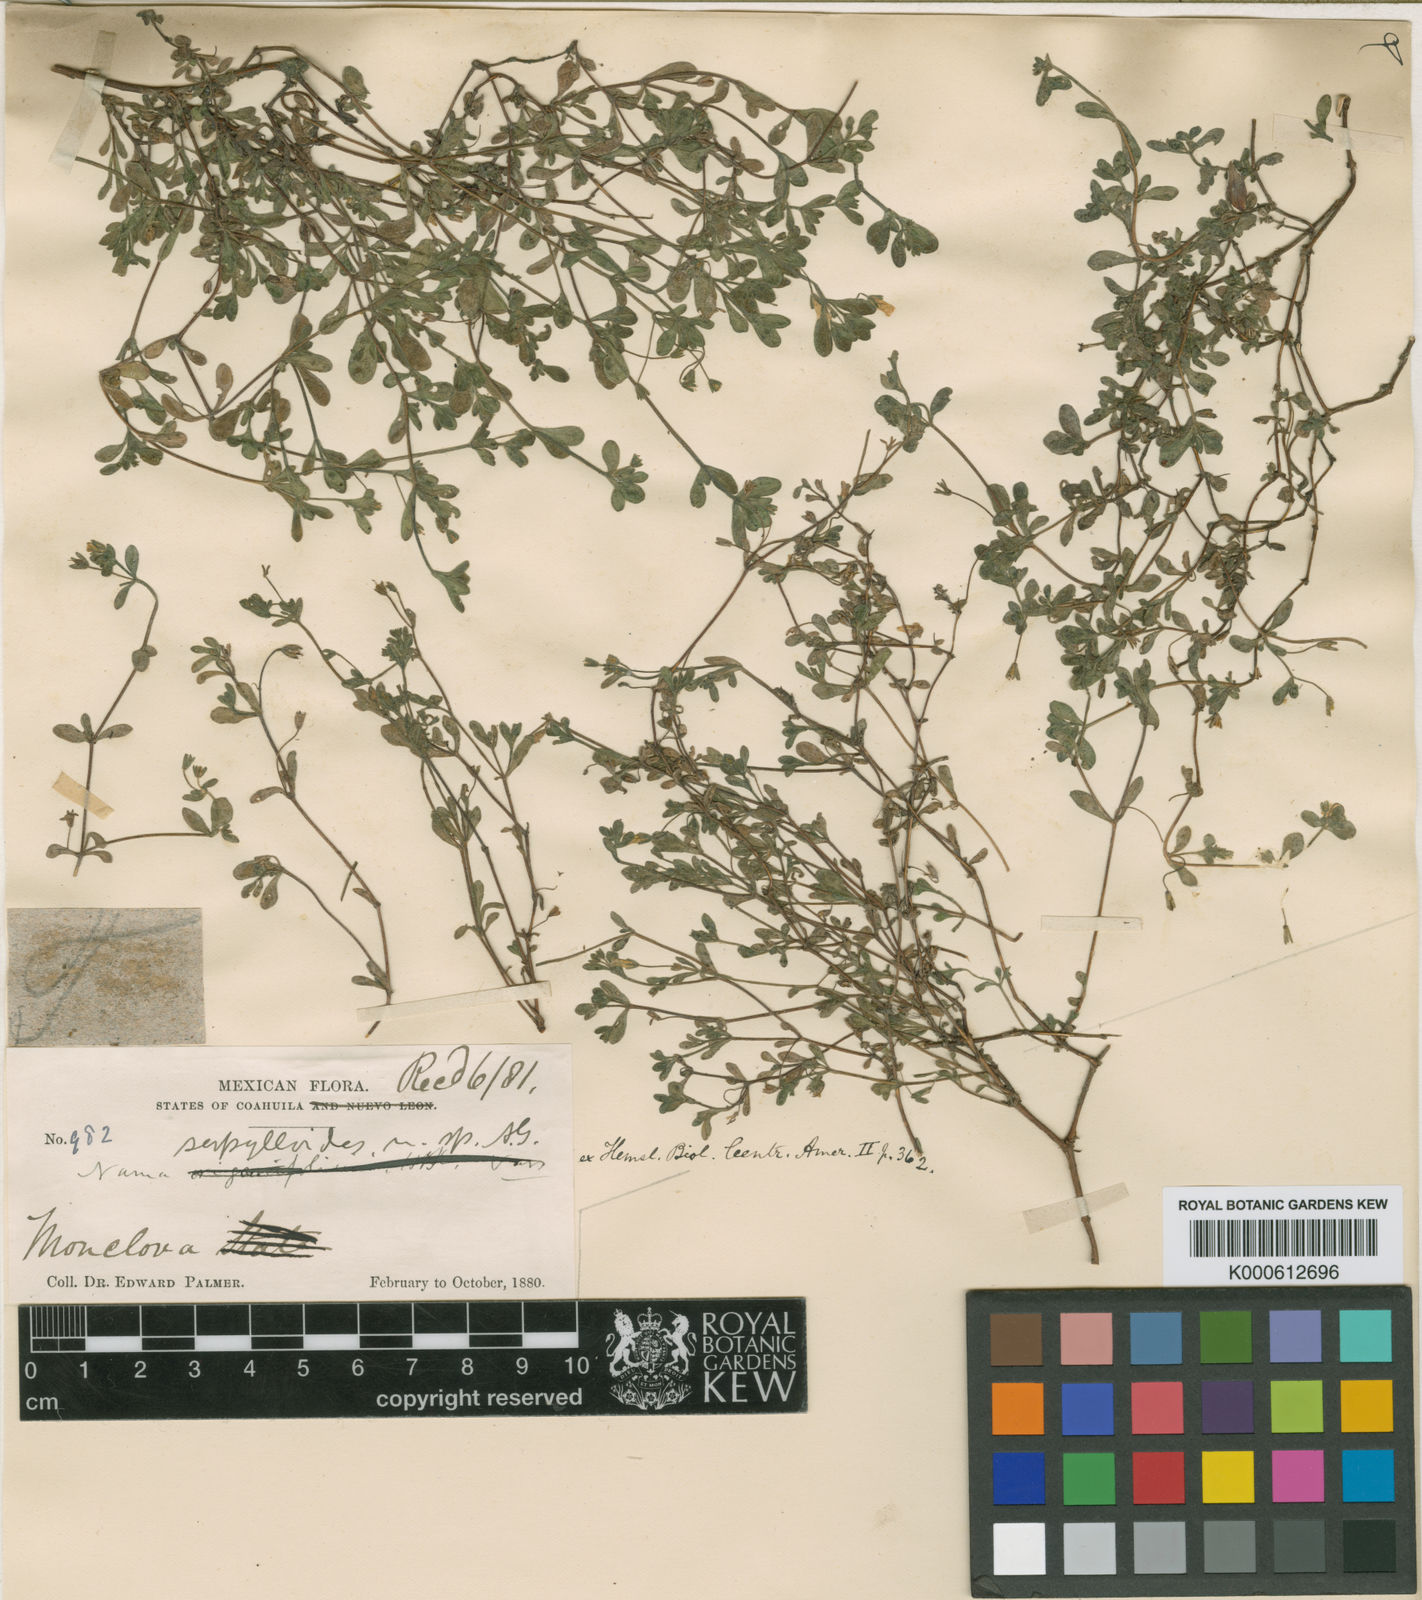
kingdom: Plantae
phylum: Tracheophyta
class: Magnoliopsida
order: Boraginales
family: Namaceae
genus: Nama
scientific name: Nama
